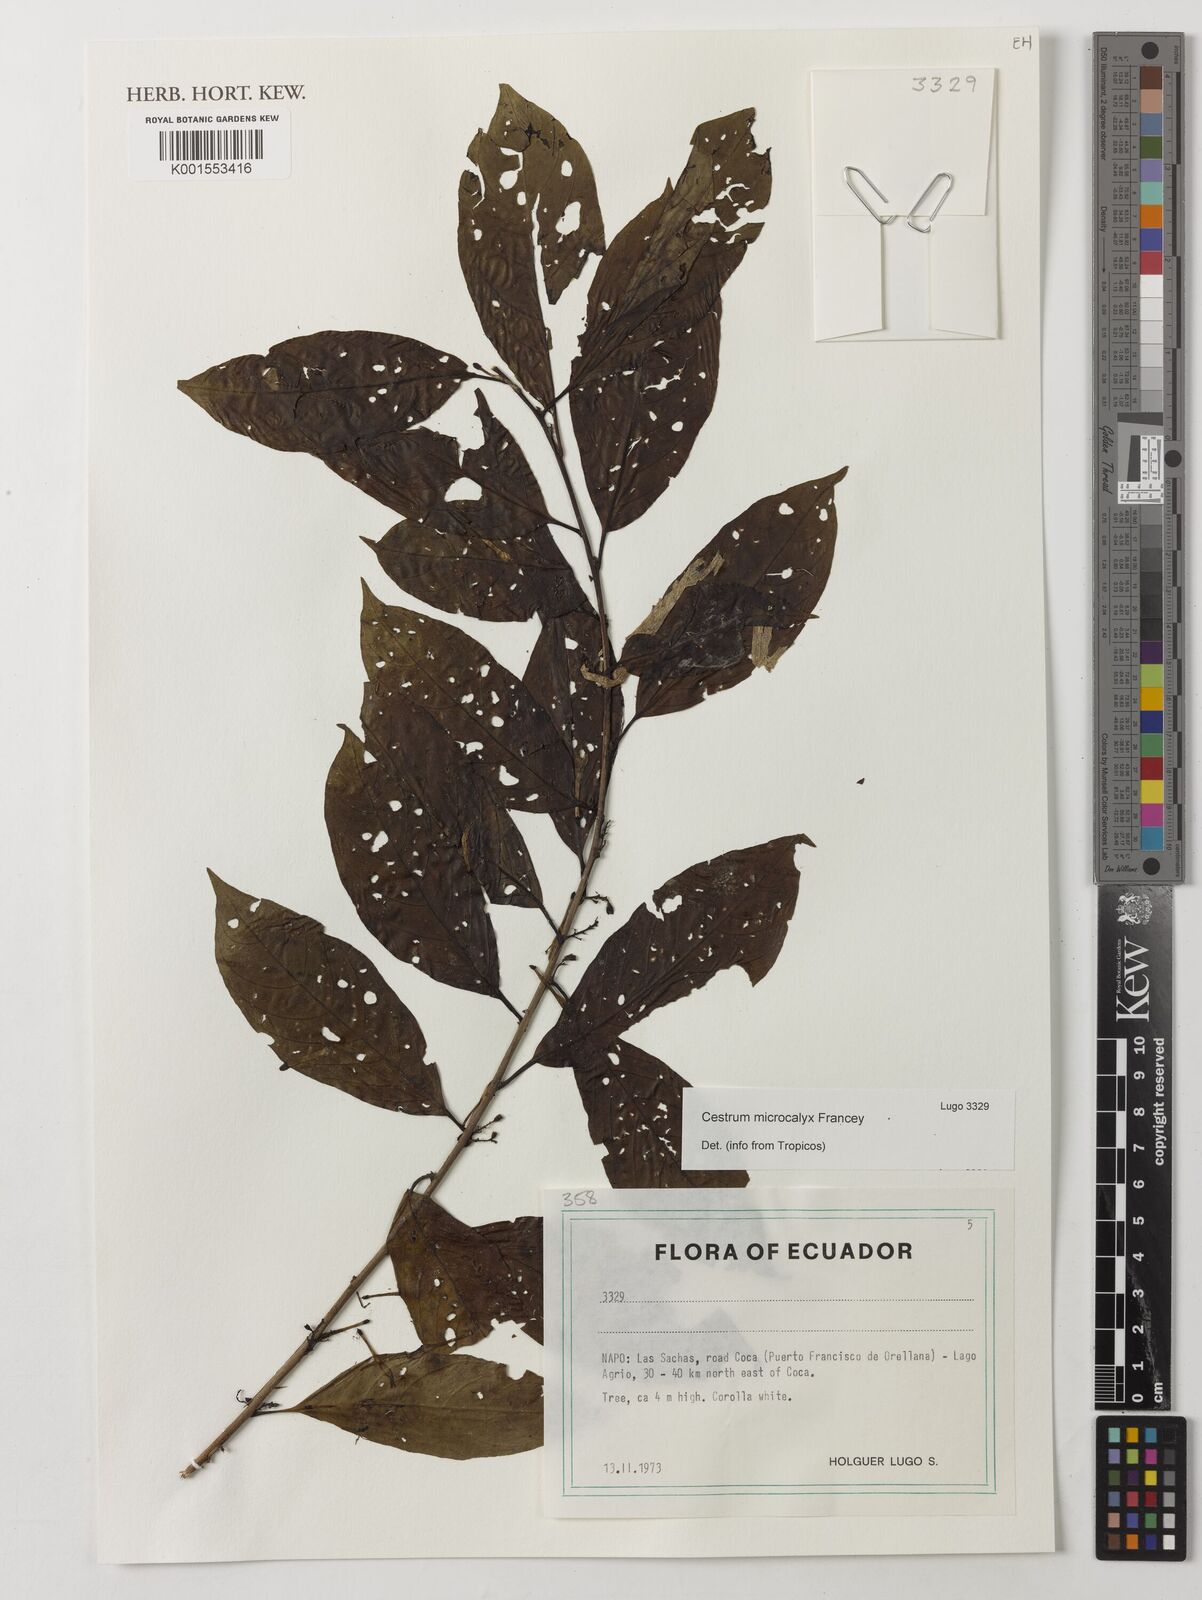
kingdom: Plantae
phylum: Tracheophyta
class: Magnoliopsida
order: Solanales
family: Solanaceae
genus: Cestrum
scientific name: Cestrum microcalyx
